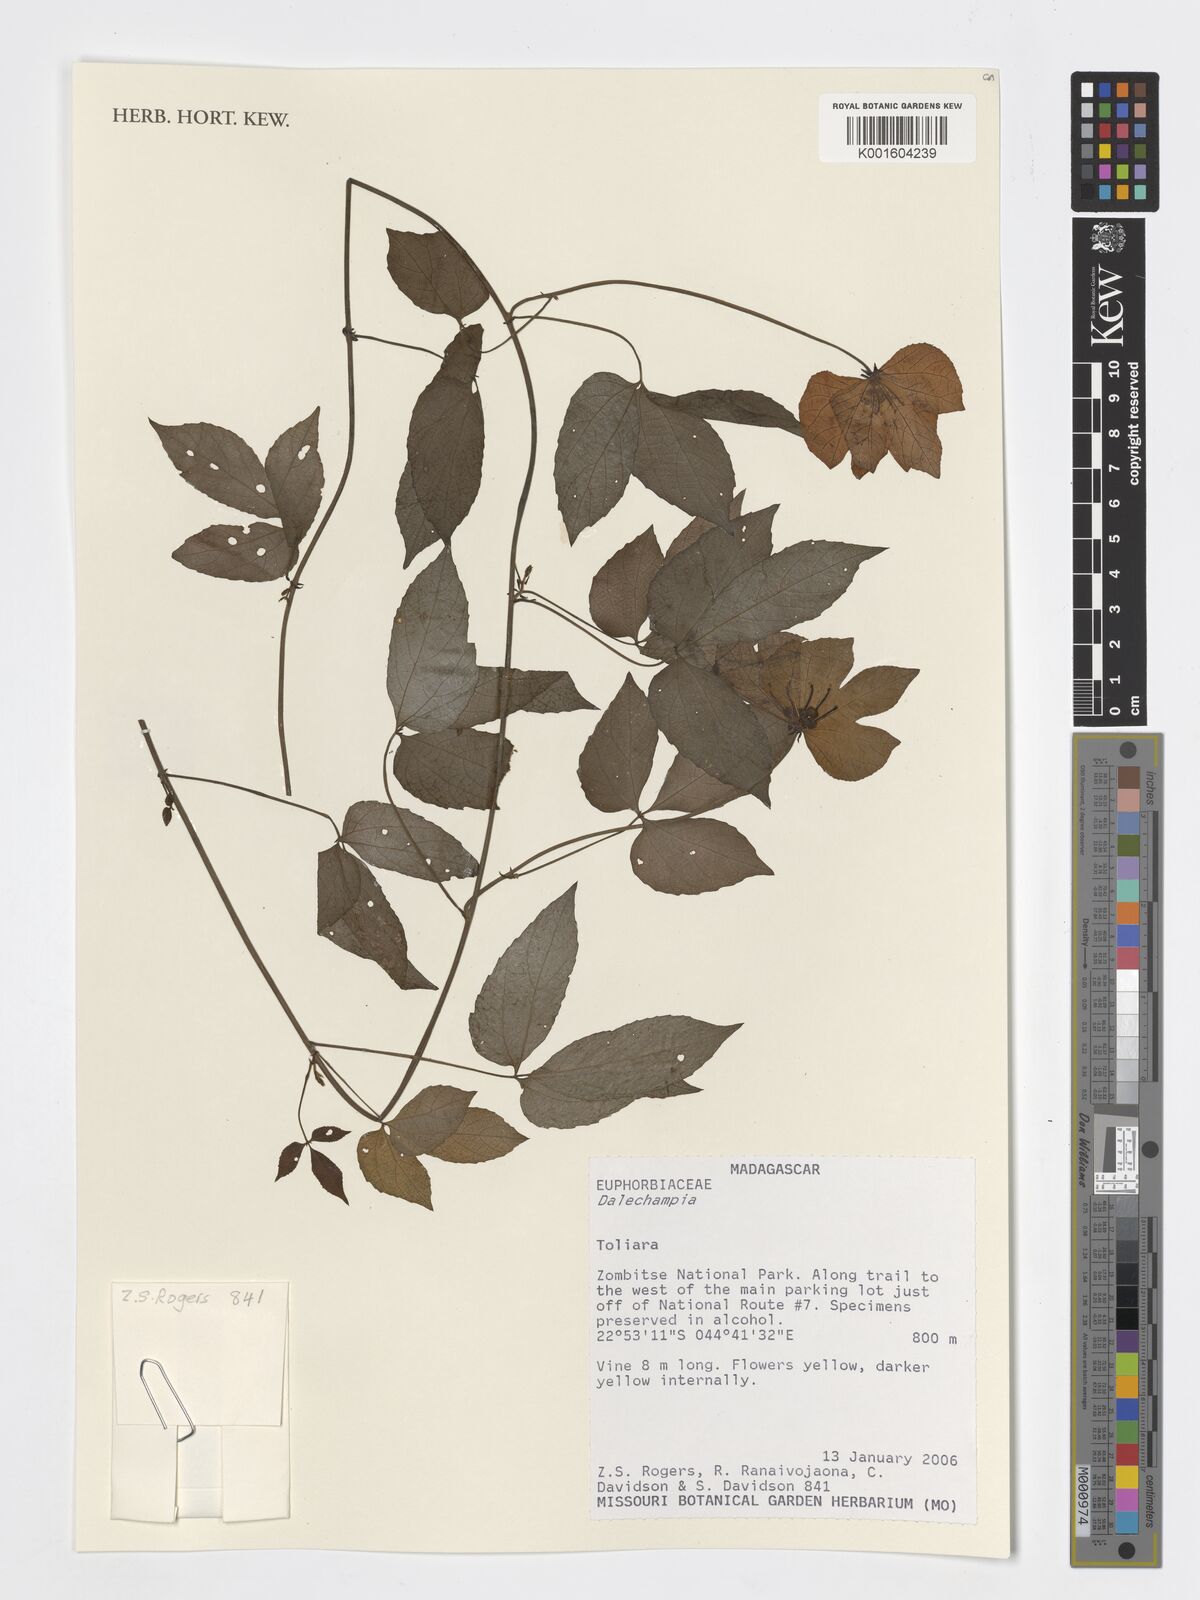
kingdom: Plantae
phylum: Tracheophyta
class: Magnoliopsida
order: Malpighiales
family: Euphorbiaceae
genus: Dalechampia
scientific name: Dalechampia
